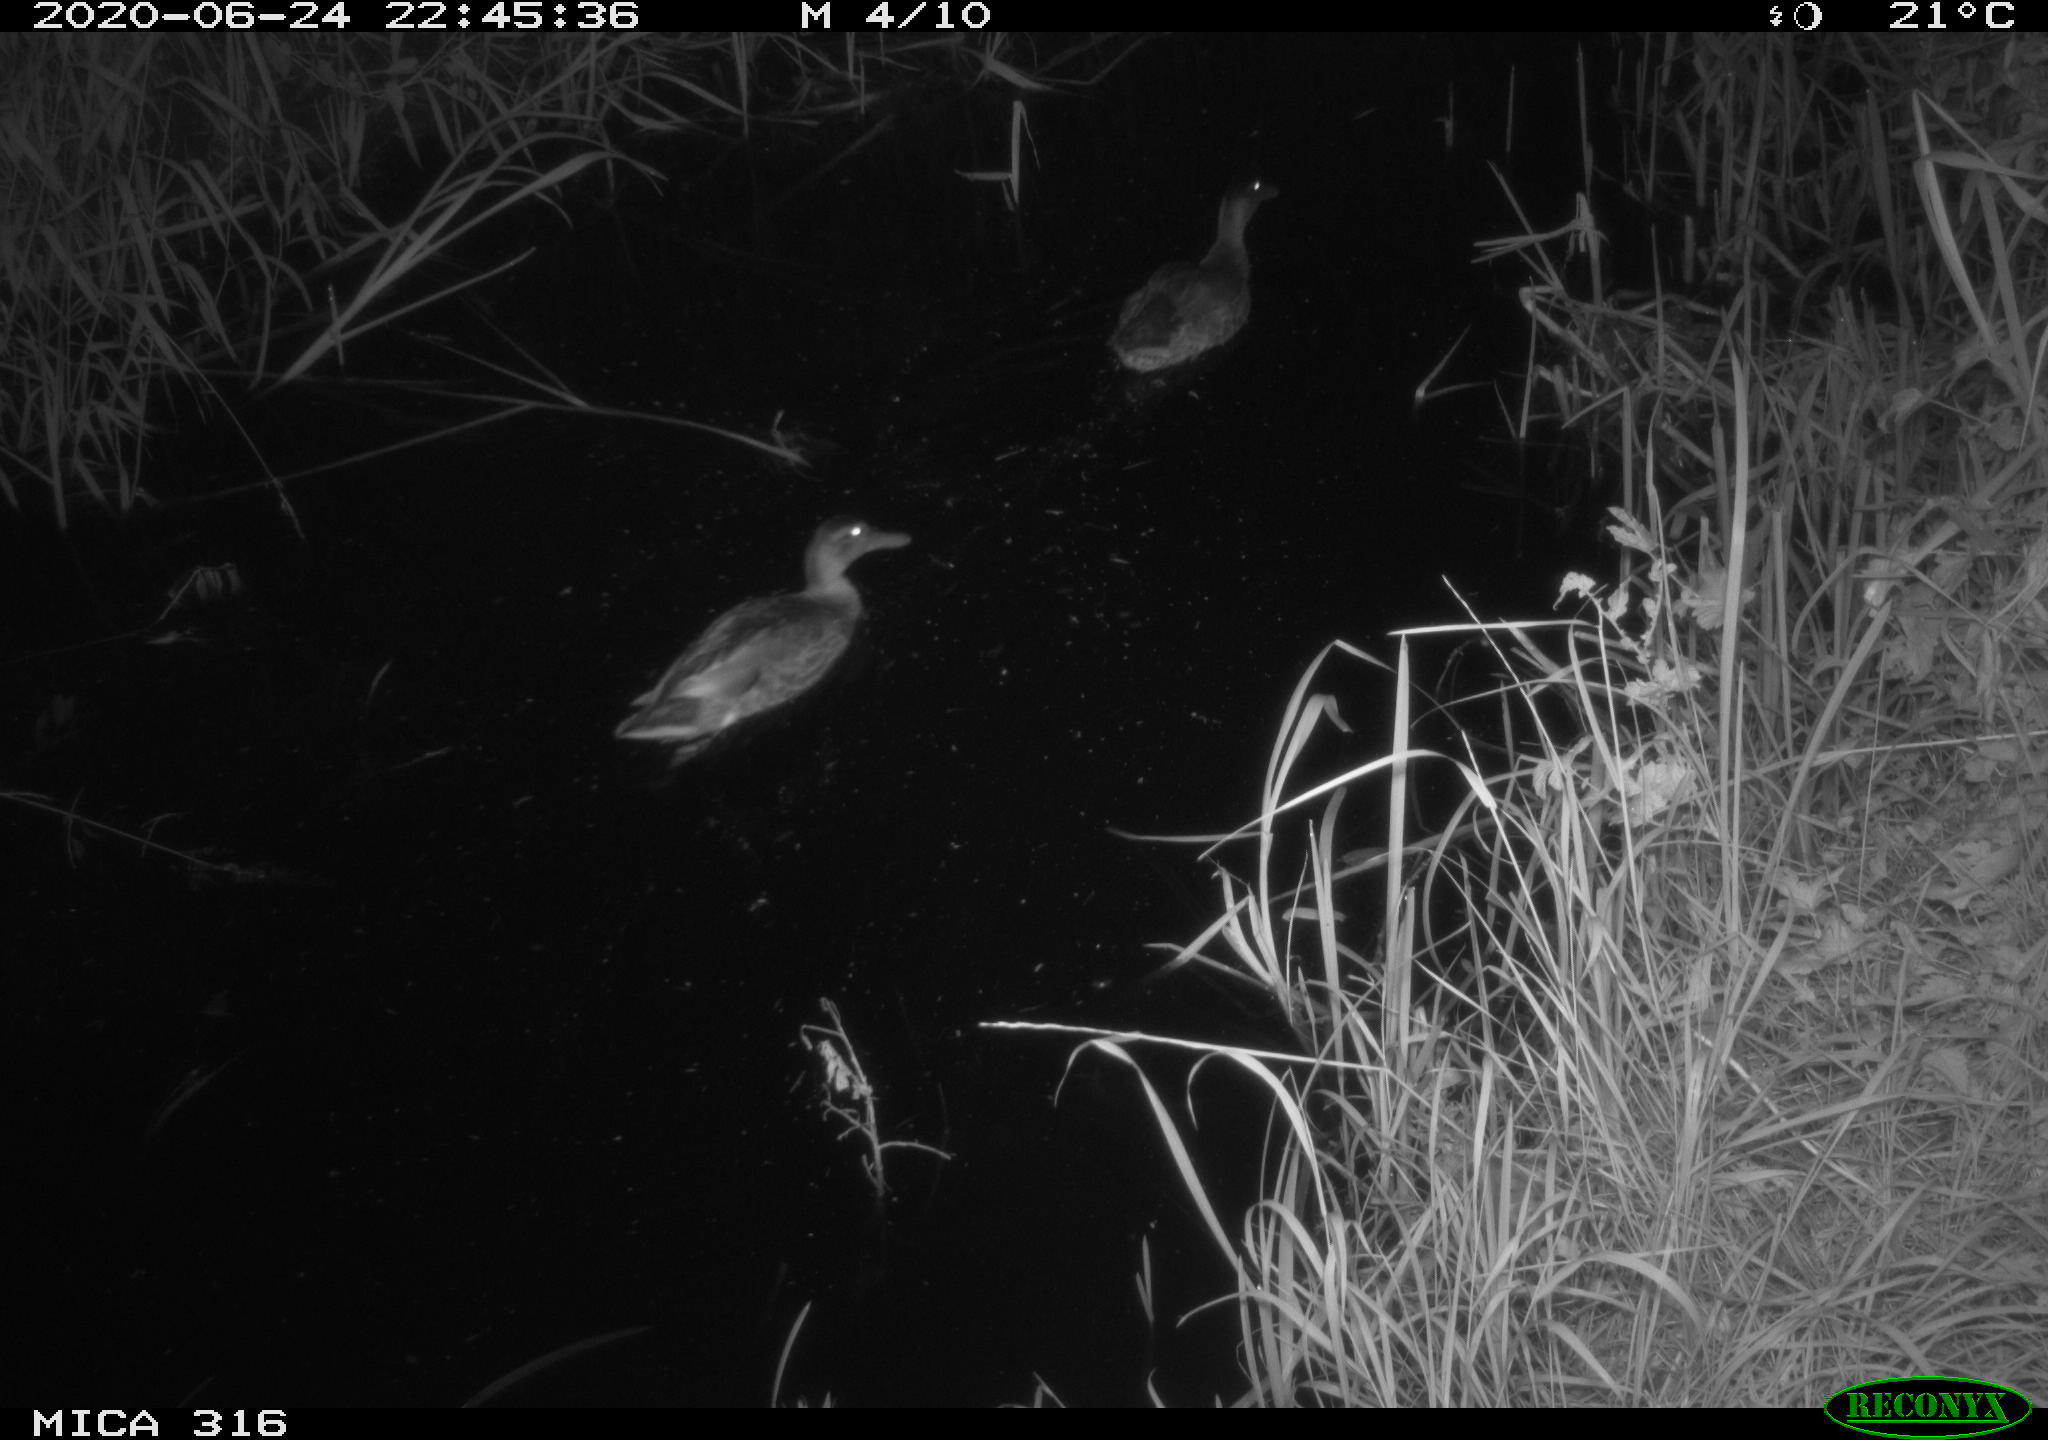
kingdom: Animalia
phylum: Chordata
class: Aves
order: Anseriformes
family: Anatidae
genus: Anas
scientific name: Anas platyrhynchos
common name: Mallard
